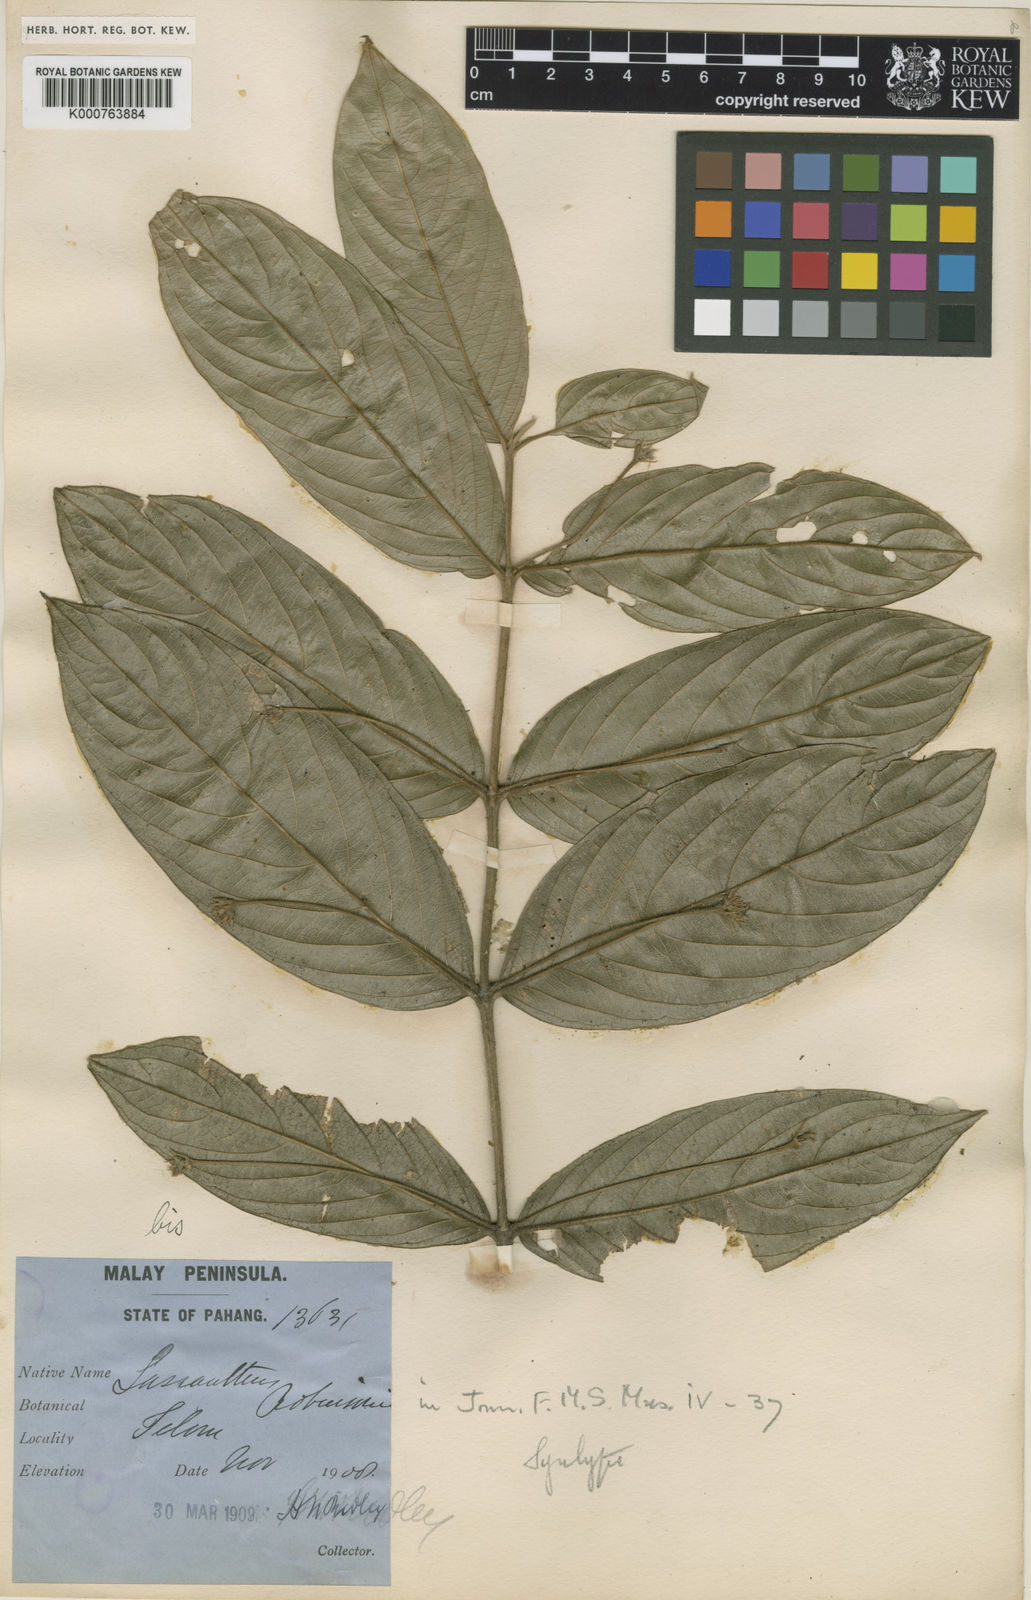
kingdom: Plantae
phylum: Tracheophyta
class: Magnoliopsida
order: Gentianales
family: Rubiaceae
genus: Lasianthus
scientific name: Lasianthus robinsonii
